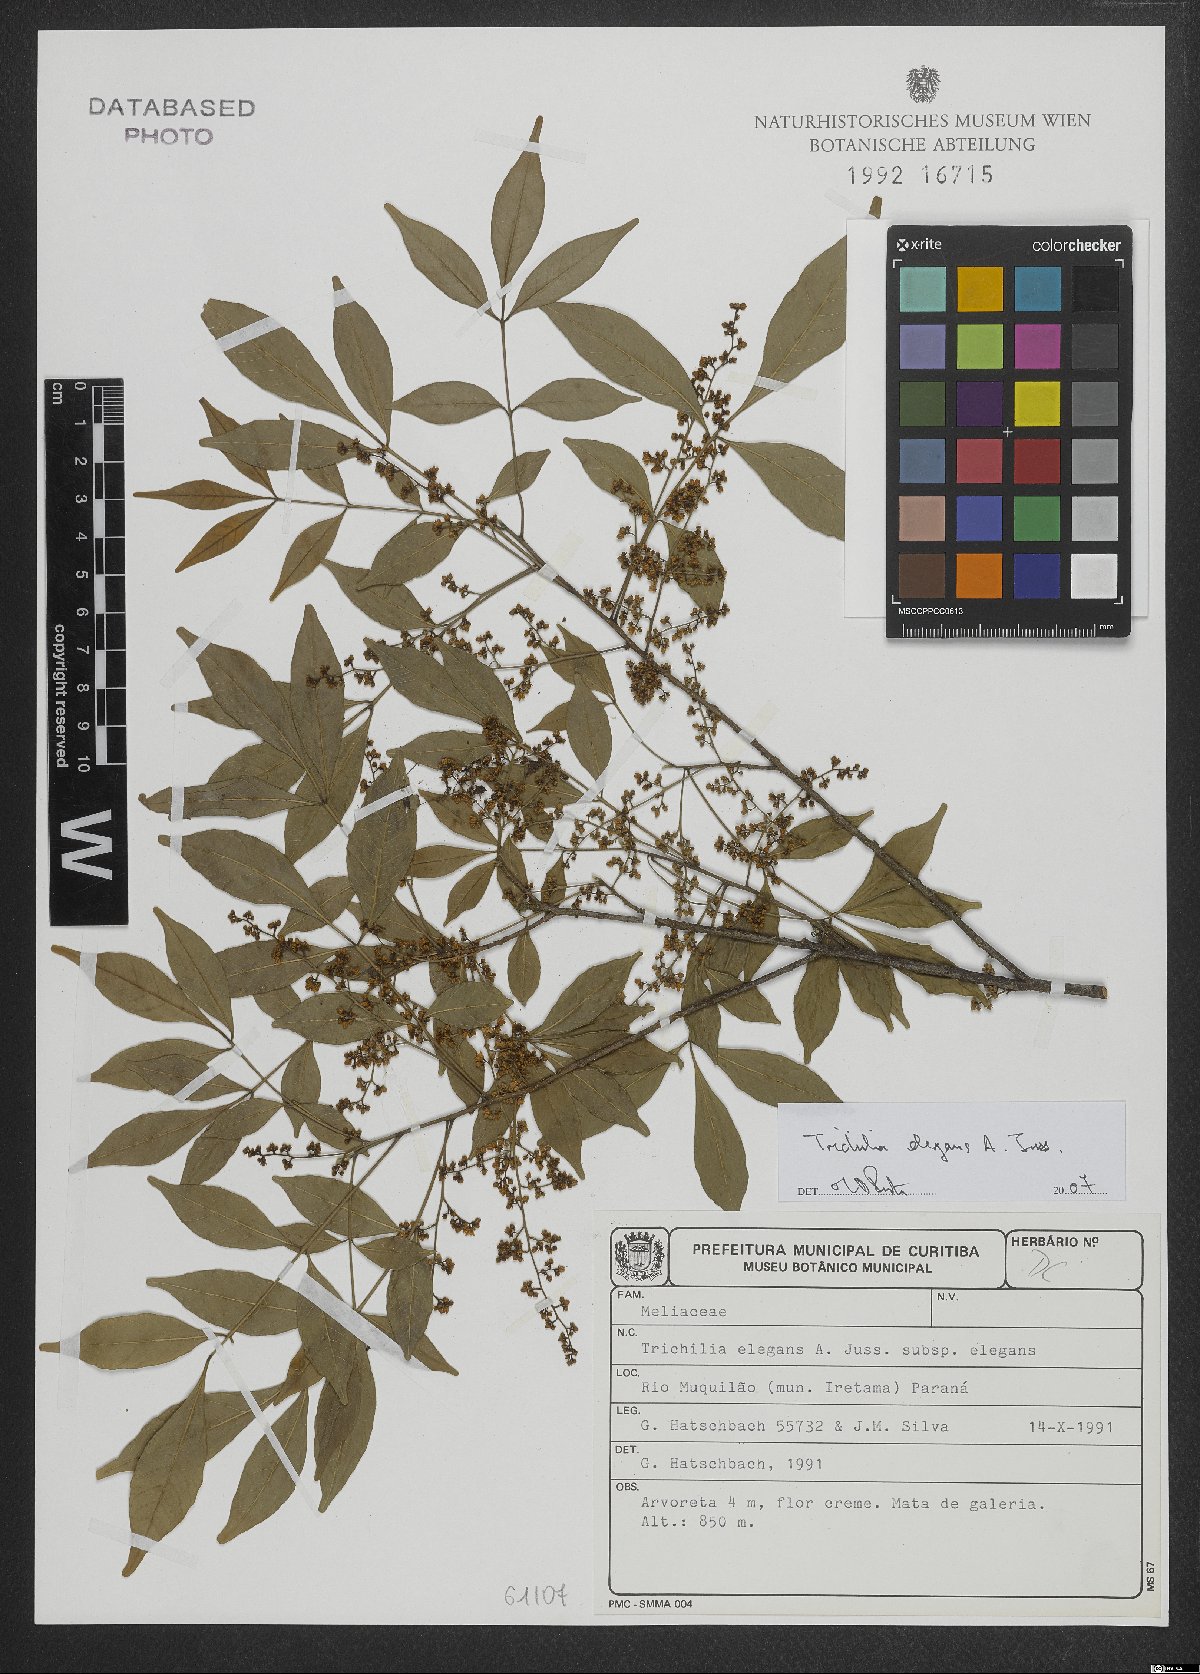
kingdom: Plantae
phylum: Tracheophyta
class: Magnoliopsida
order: Sapindales
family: Meliaceae
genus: Trichilia
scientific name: Trichilia elegans
